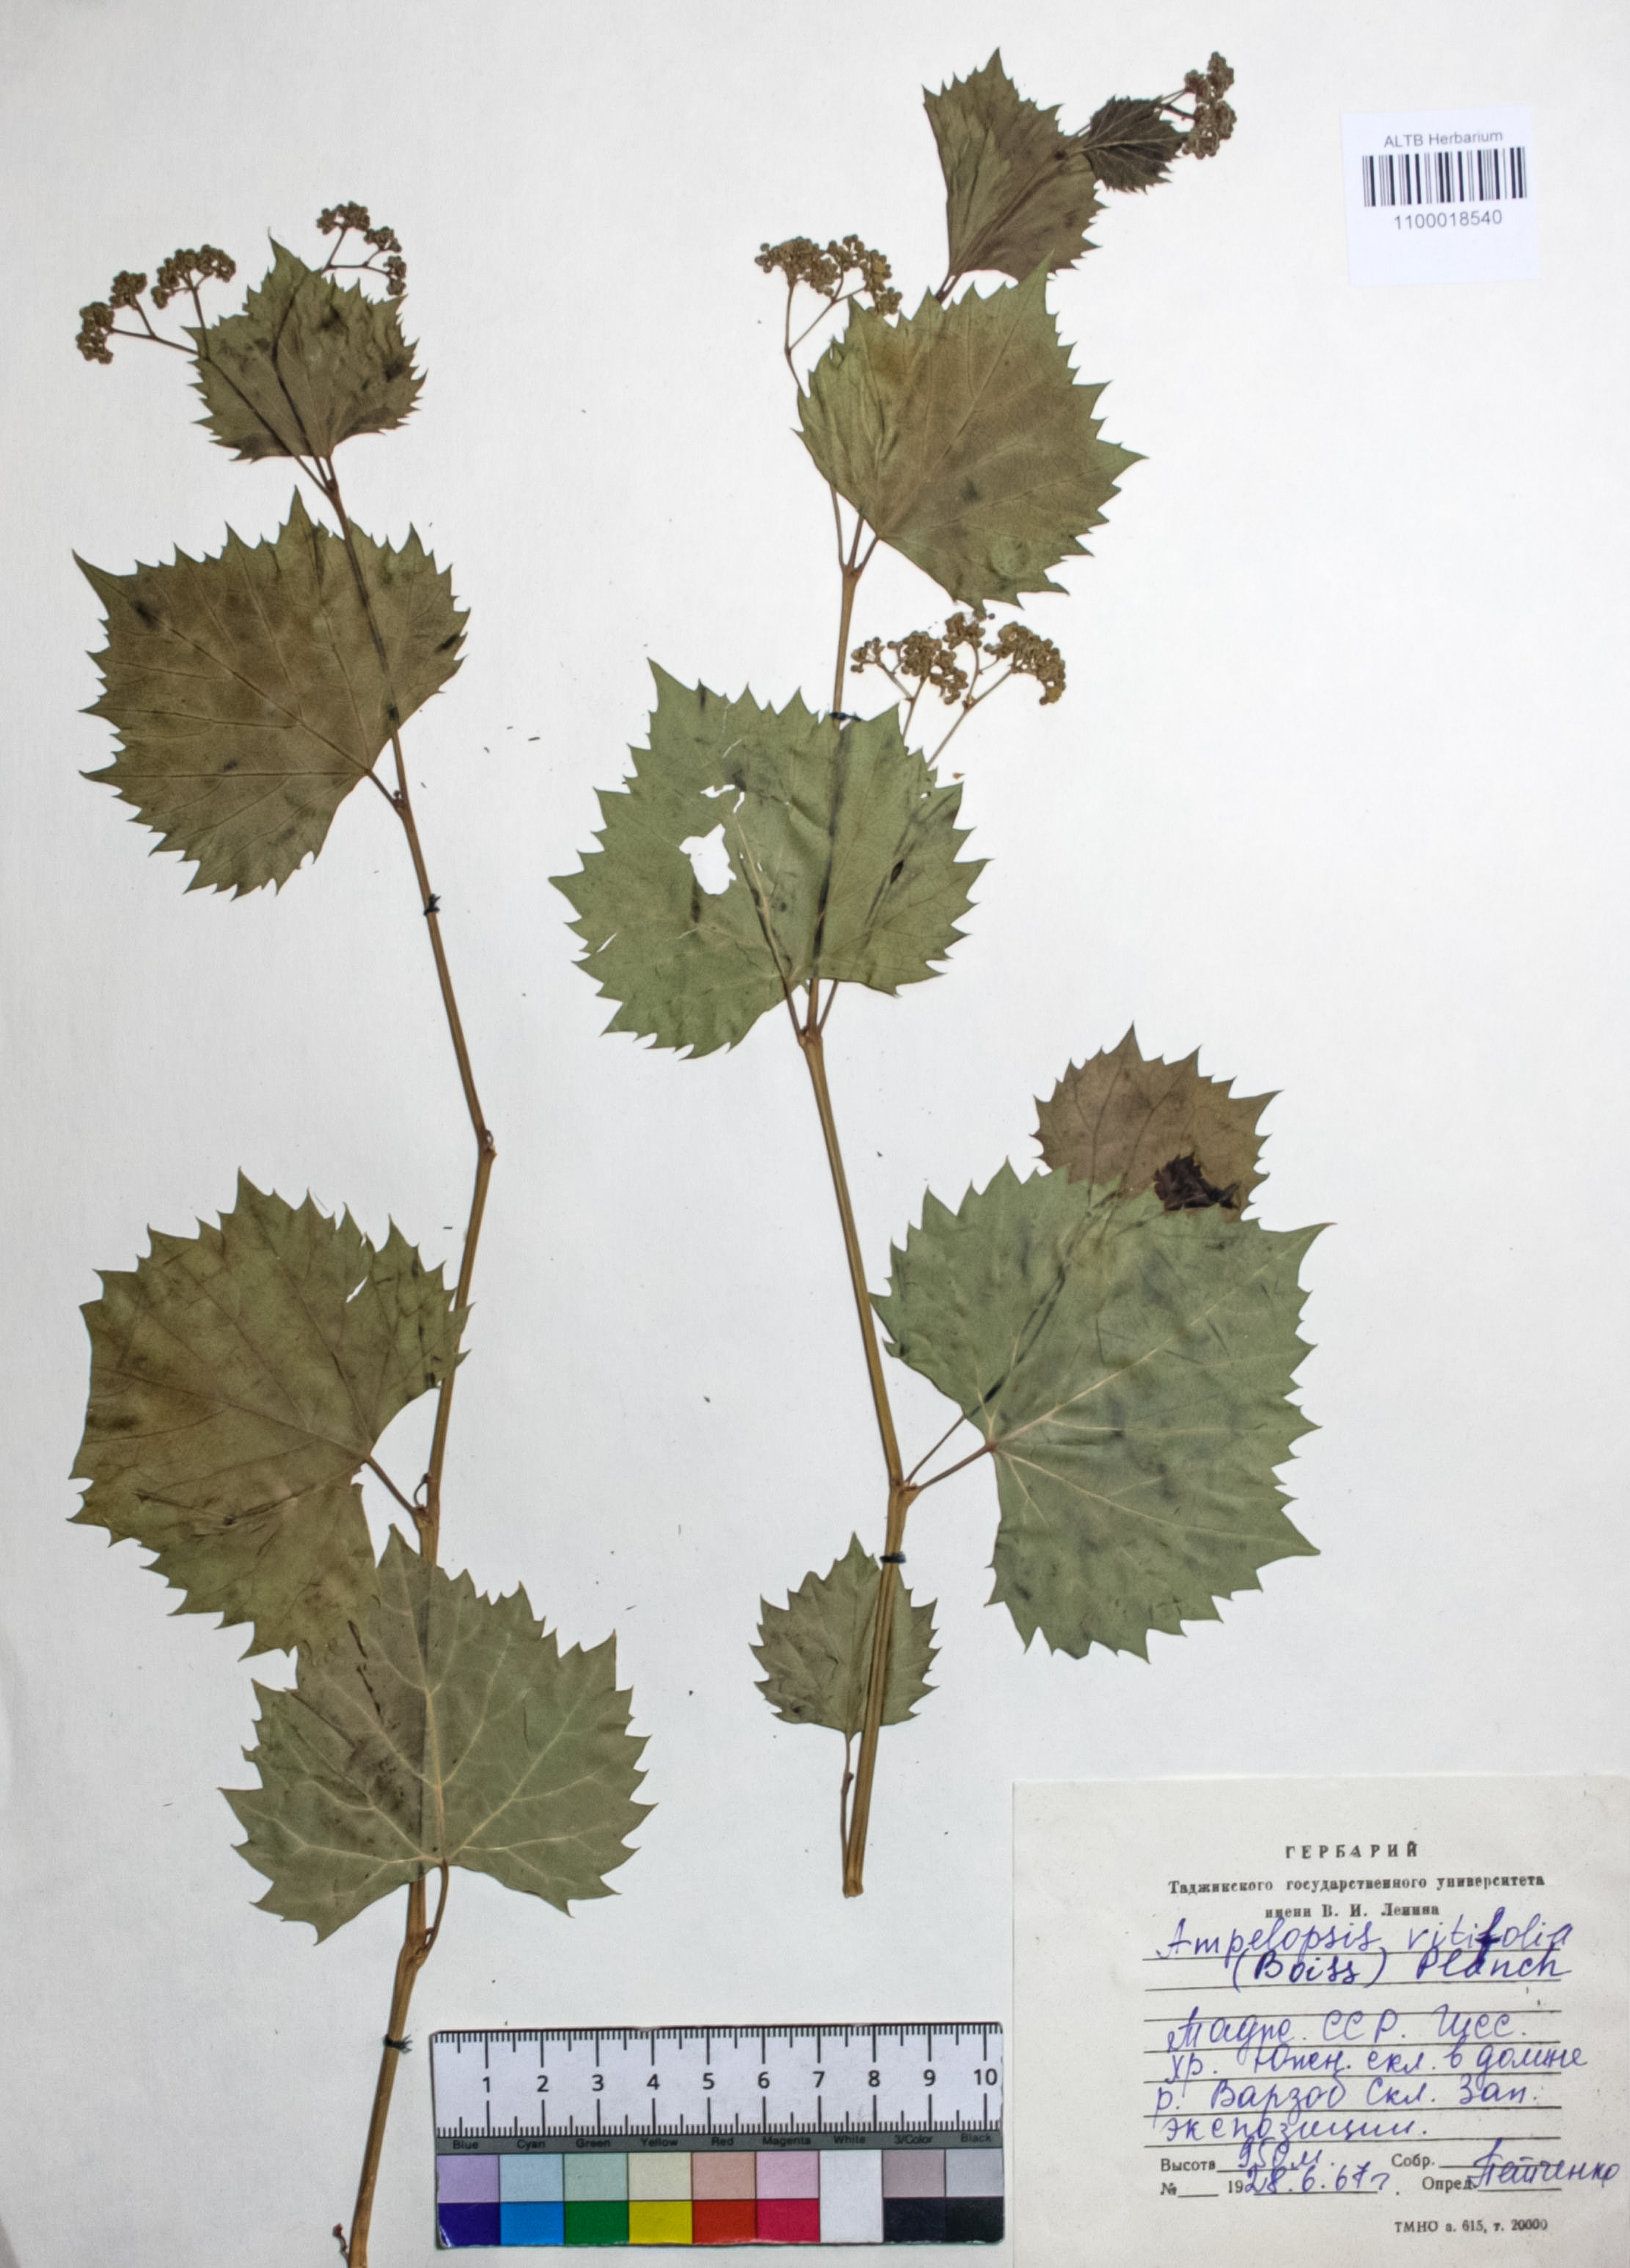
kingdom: Plantae
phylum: Tracheophyta
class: Magnoliopsida
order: Vitales
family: Vitaceae
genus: Ampelopsis
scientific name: Ampelopsis vitifolia
